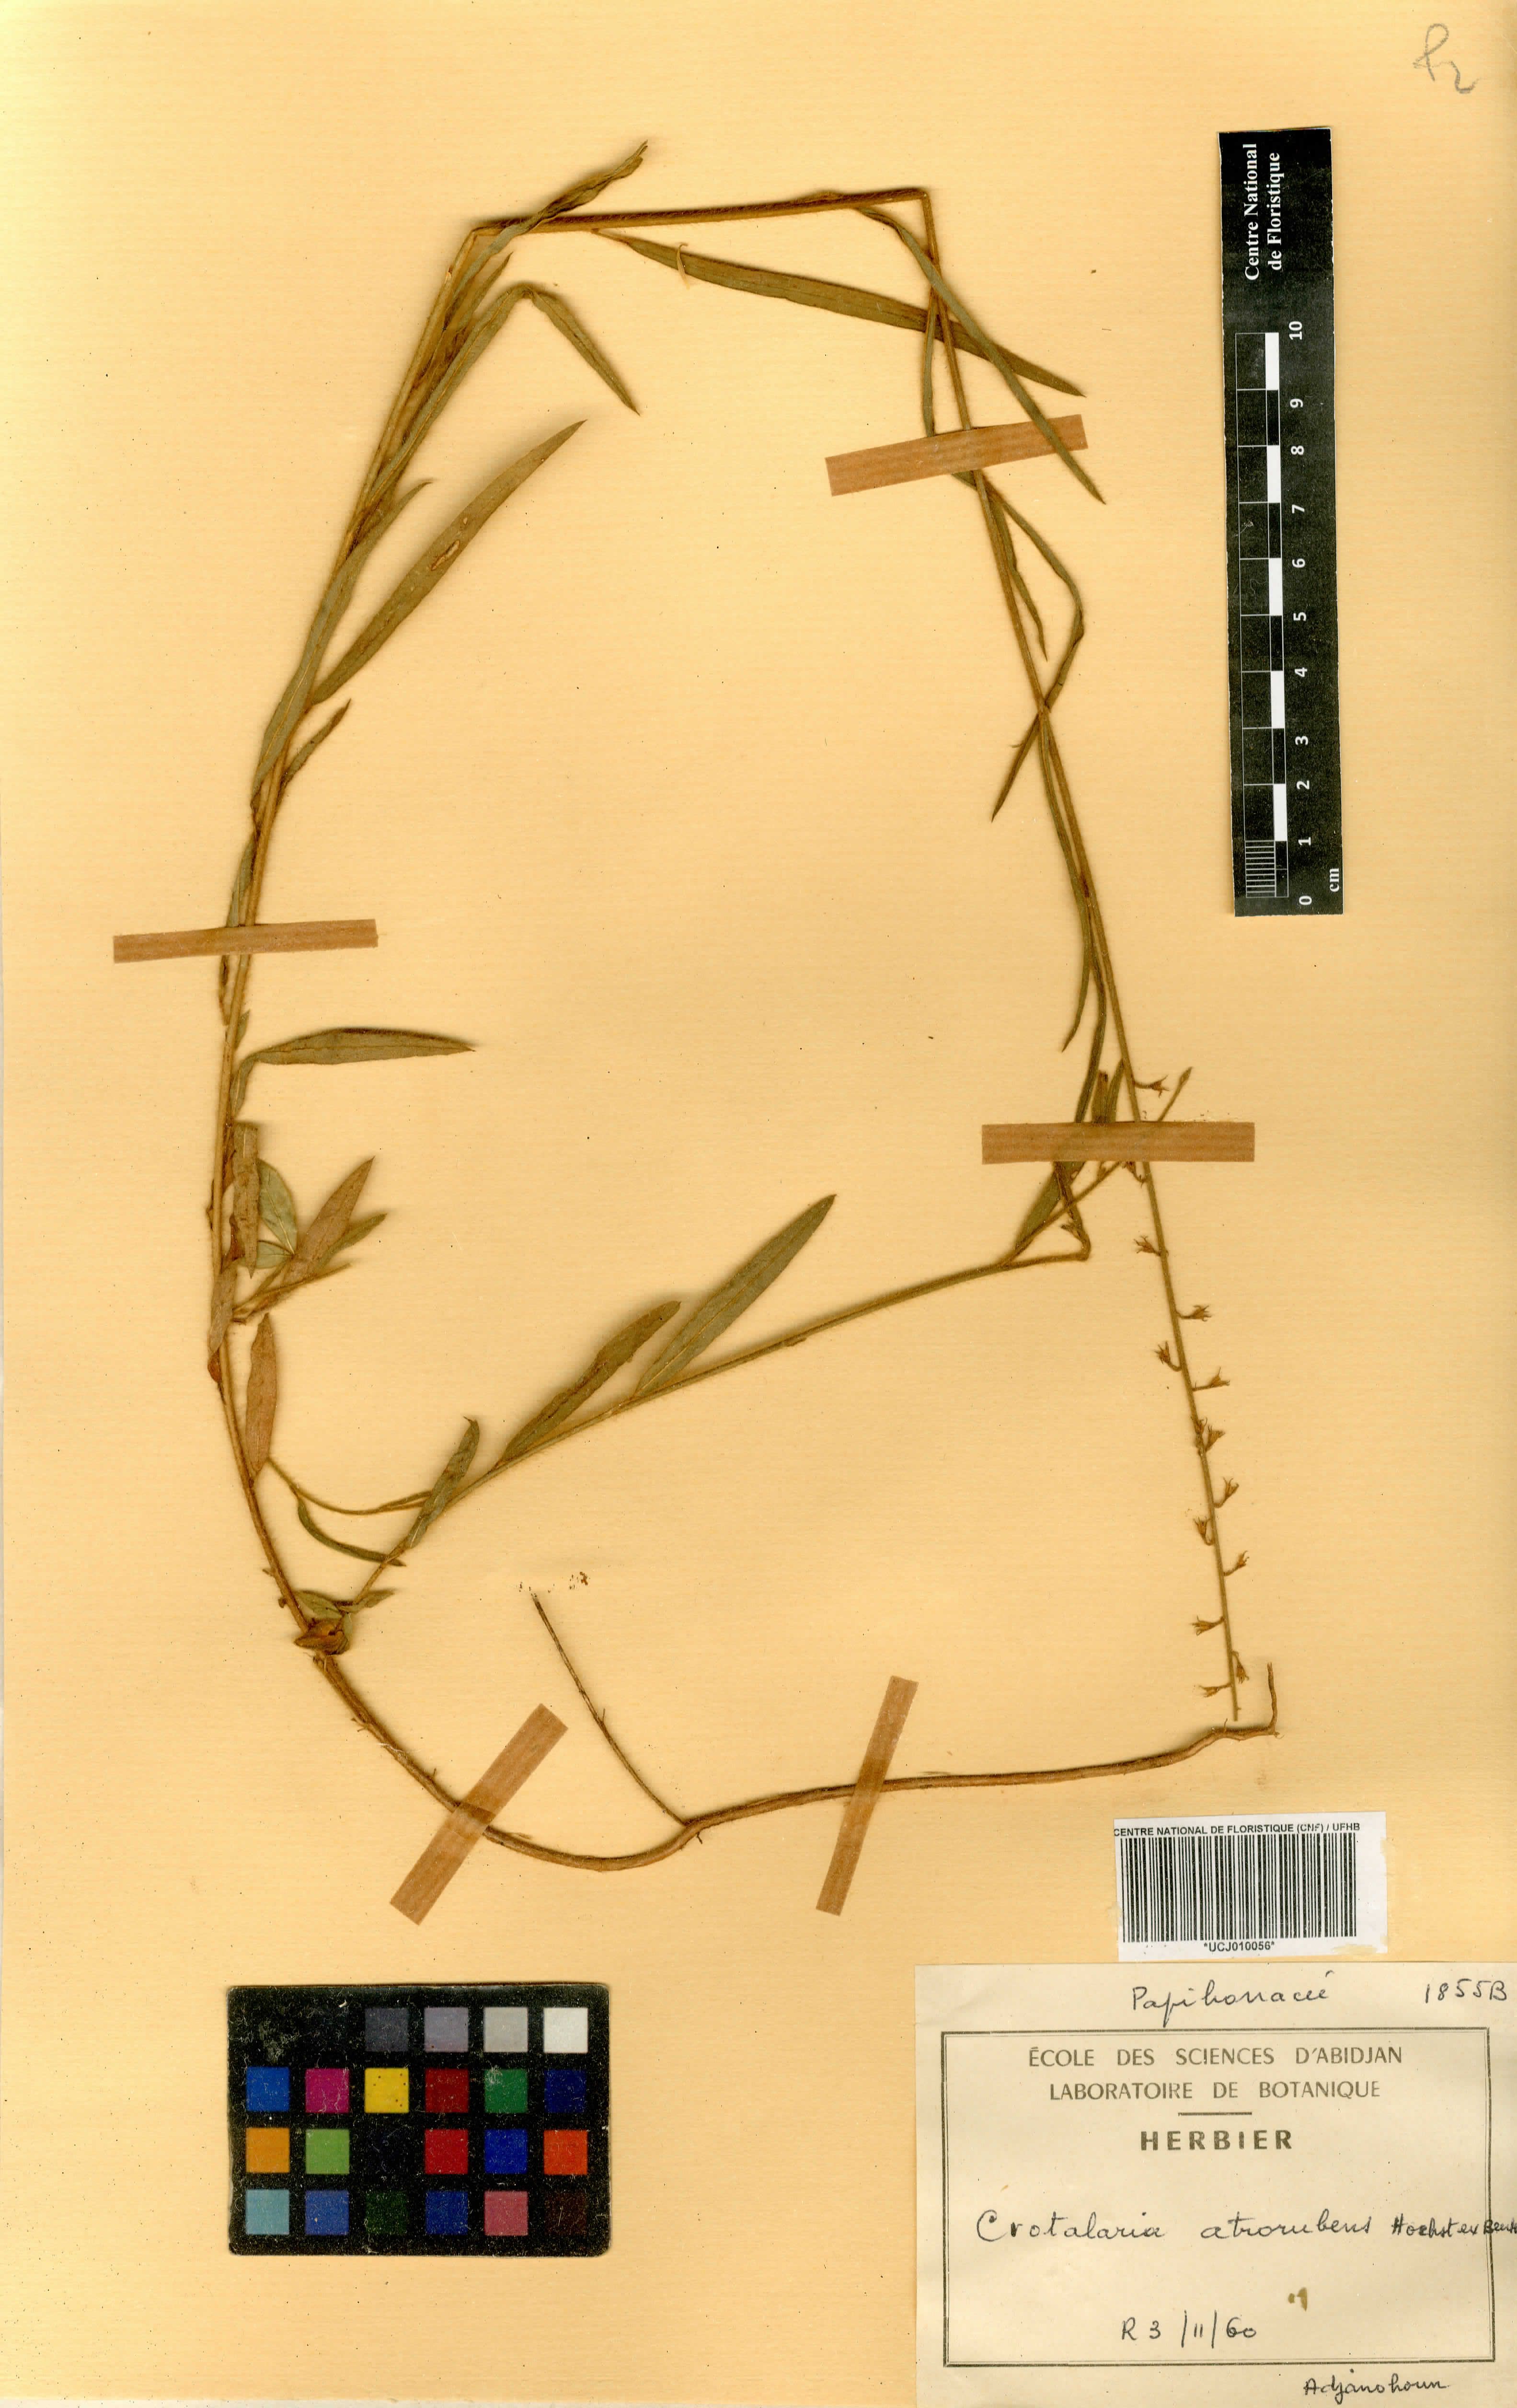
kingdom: Plantae
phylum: Tracheophyta
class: Magnoliopsida
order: Fabales
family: Fabaceae
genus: Crotalaria
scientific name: Crotalaria atrorubens
